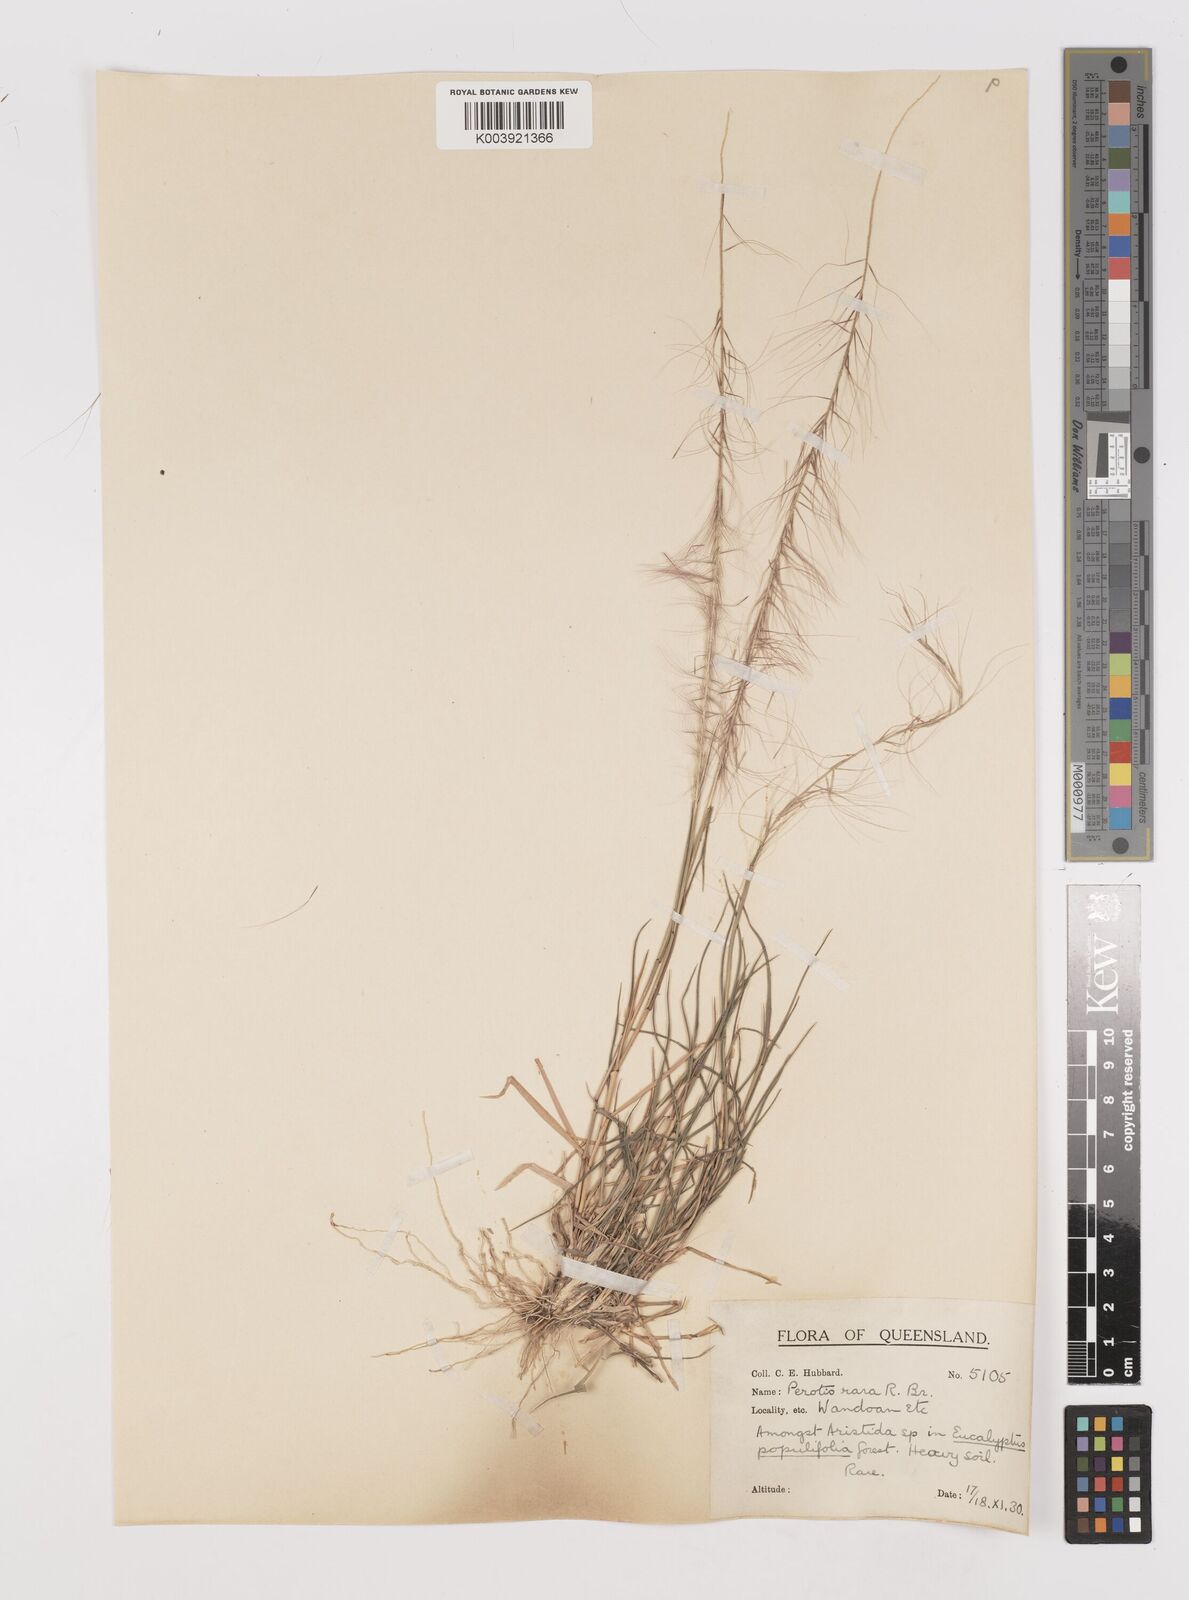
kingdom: Plantae
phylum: Tracheophyta
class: Liliopsida
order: Poales
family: Poaceae
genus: Perotis
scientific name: Perotis rara
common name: Comet grass
